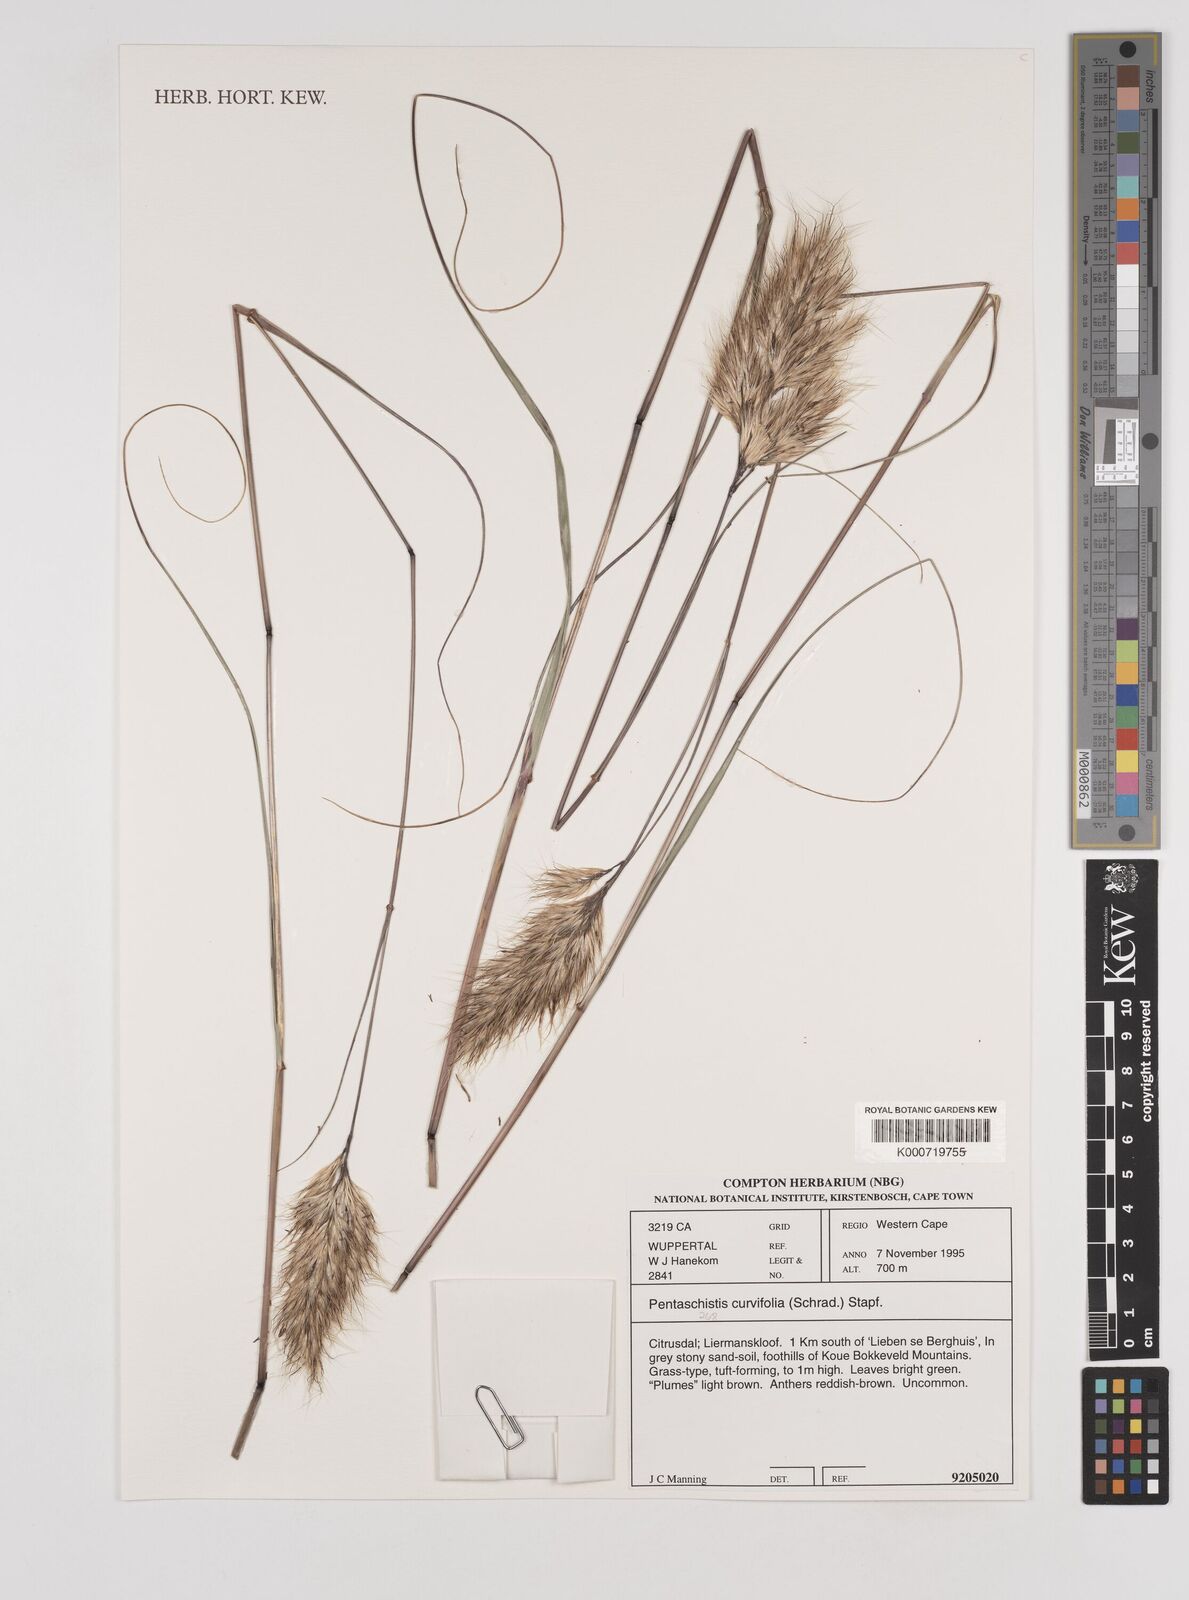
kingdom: Plantae
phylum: Tracheophyta
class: Liliopsida
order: Poales
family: Poaceae
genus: Pentameris
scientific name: Pentameris curvifolia
